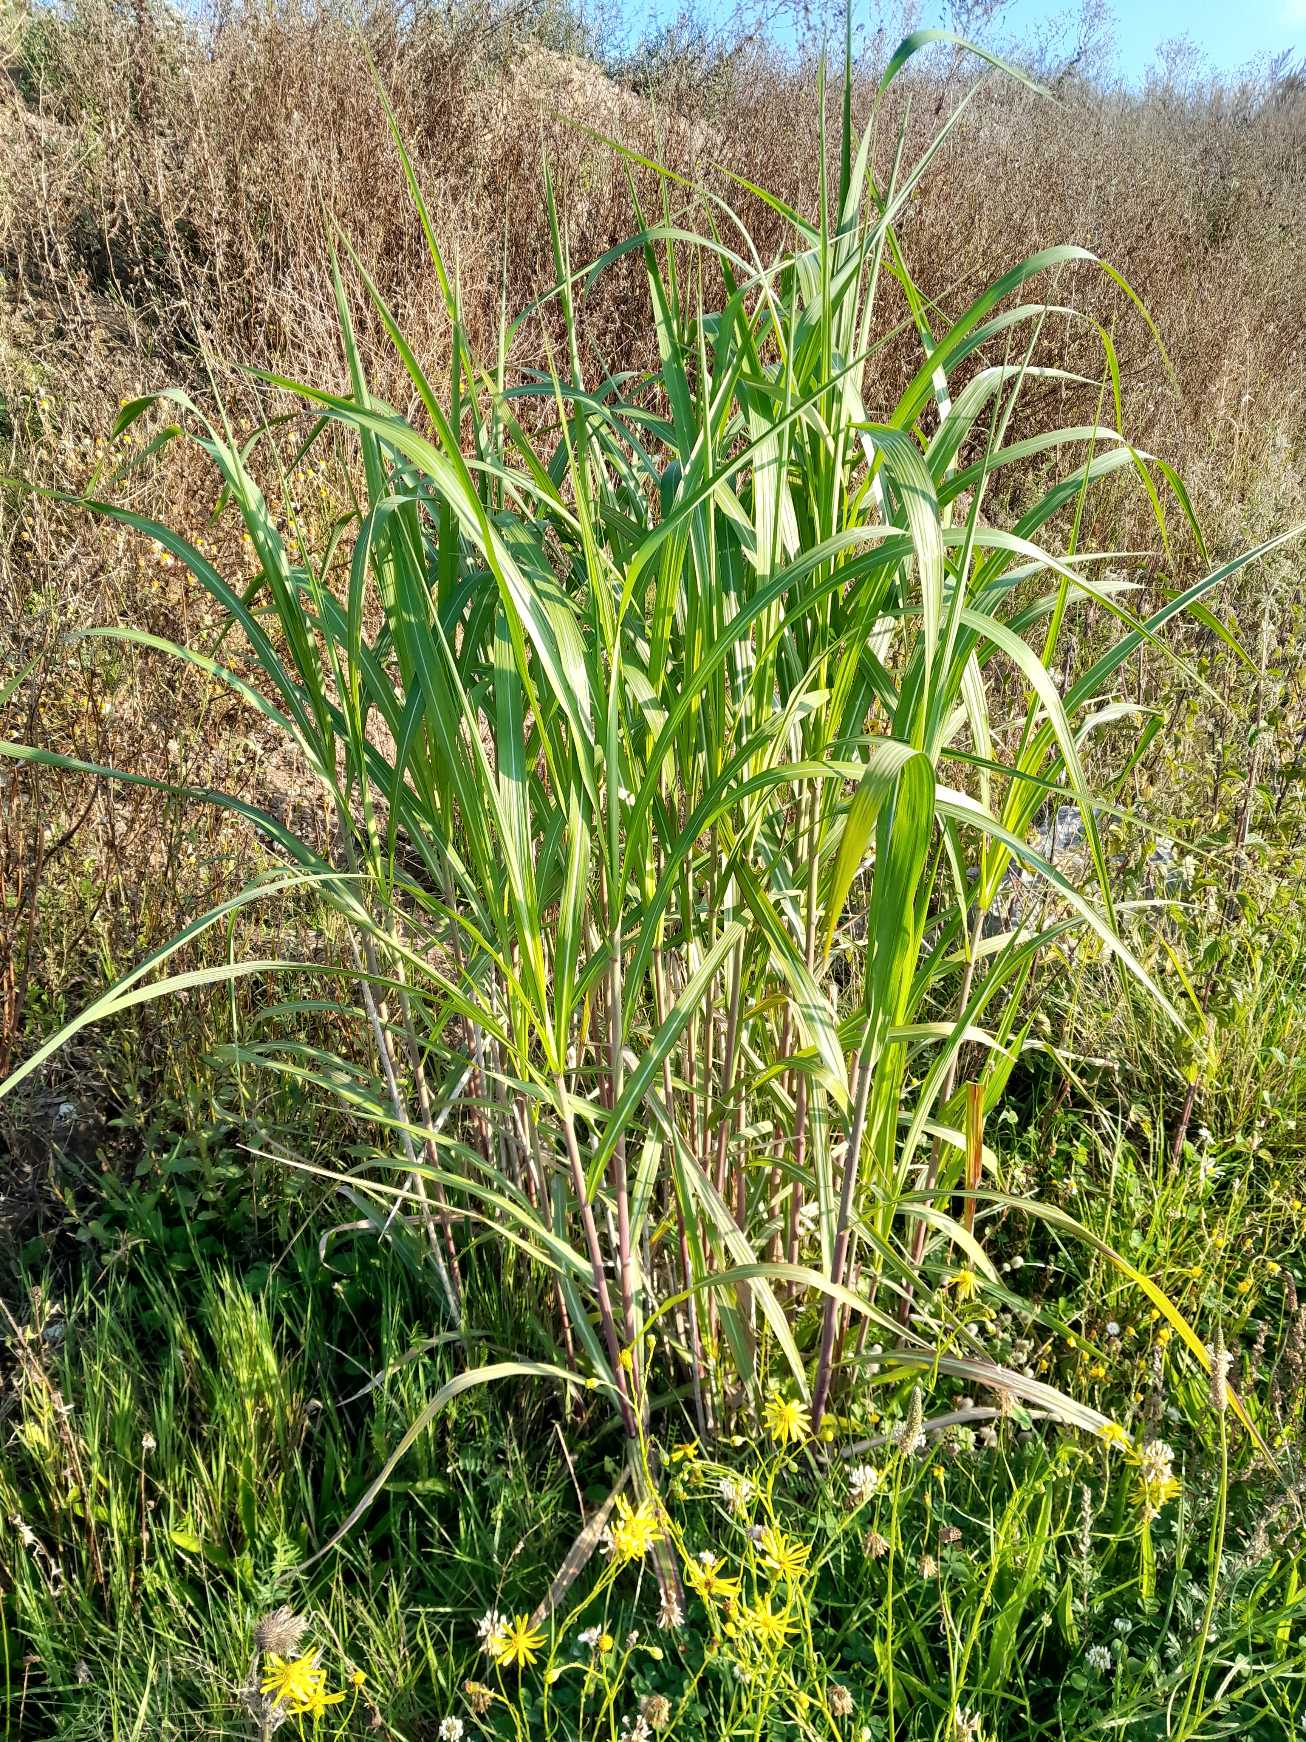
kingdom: Plantae
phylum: Tracheophyta
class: Liliopsida
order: Poales
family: Poaceae
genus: Miscanthus
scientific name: Miscanthus sinensis
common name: Elefantgræs
